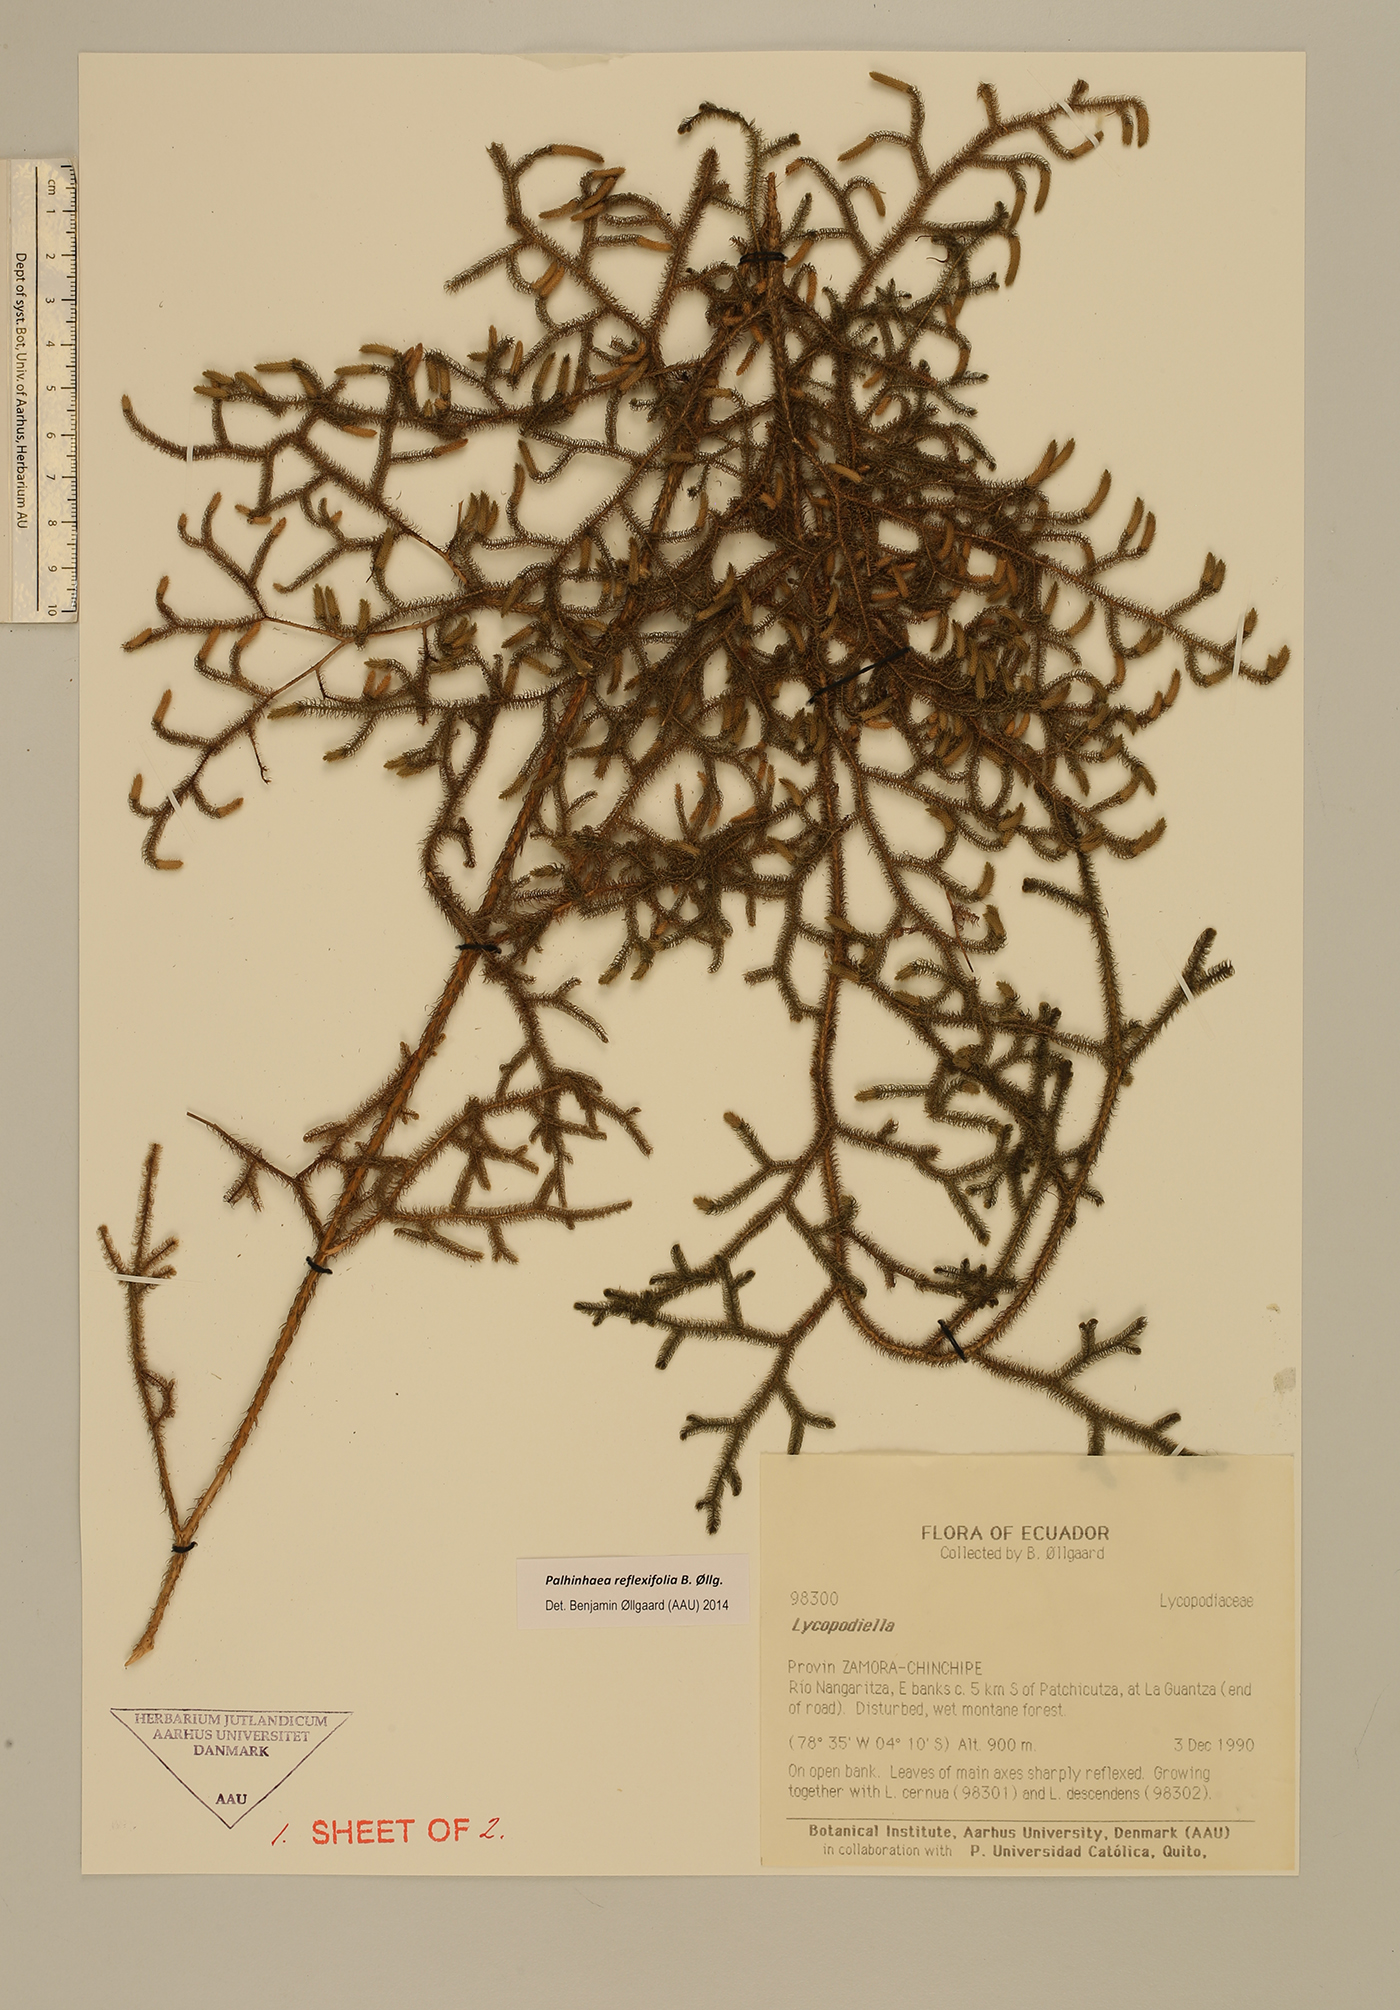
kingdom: Plantae
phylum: Tracheophyta
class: Lycopodiopsida
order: Lycopodiales
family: Lycopodiaceae
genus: Palhinhaea
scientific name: Palhinhaea reflexifolia
